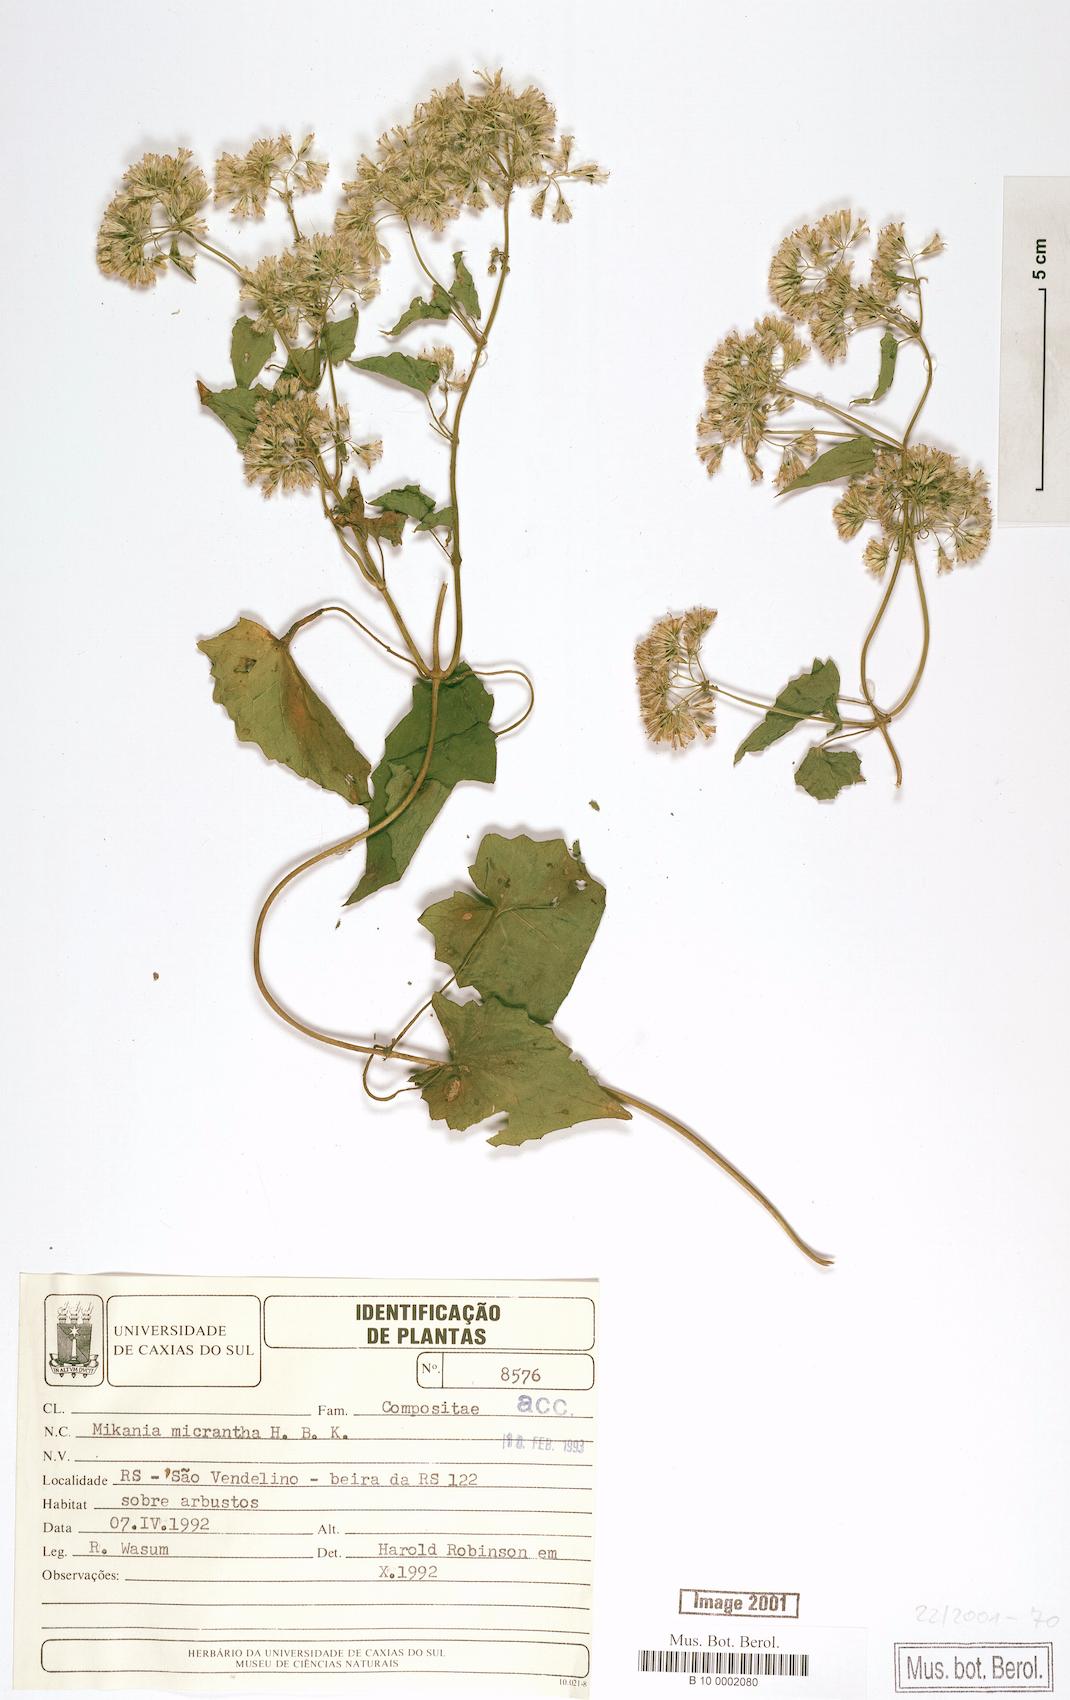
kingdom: Plantae
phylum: Tracheophyta
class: Magnoliopsida
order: Asterales
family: Asteraceae
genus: Mikania
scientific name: Mikania micrantha
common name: Mile-a-minute
